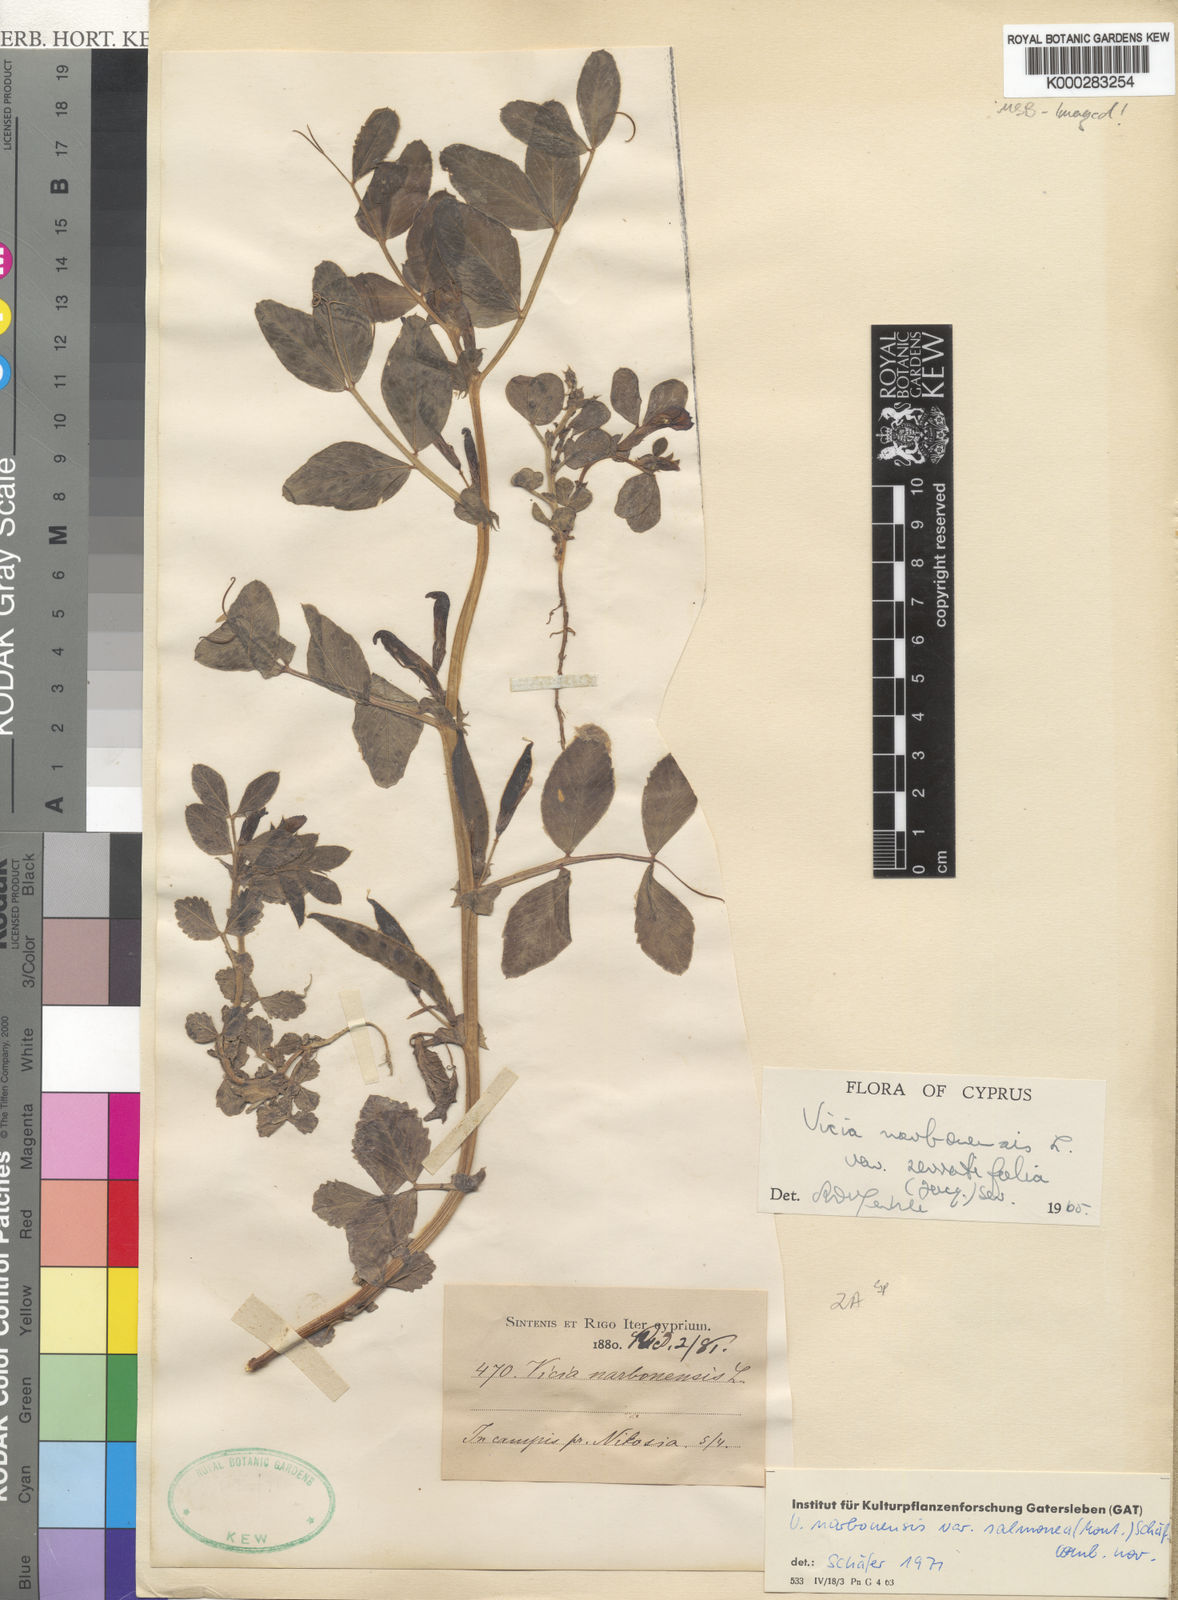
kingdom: Plantae
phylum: Tracheophyta
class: Magnoliopsida
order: Fabales
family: Fabaceae
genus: Vicia
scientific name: Vicia narbonensis
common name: Narbonne vetch
